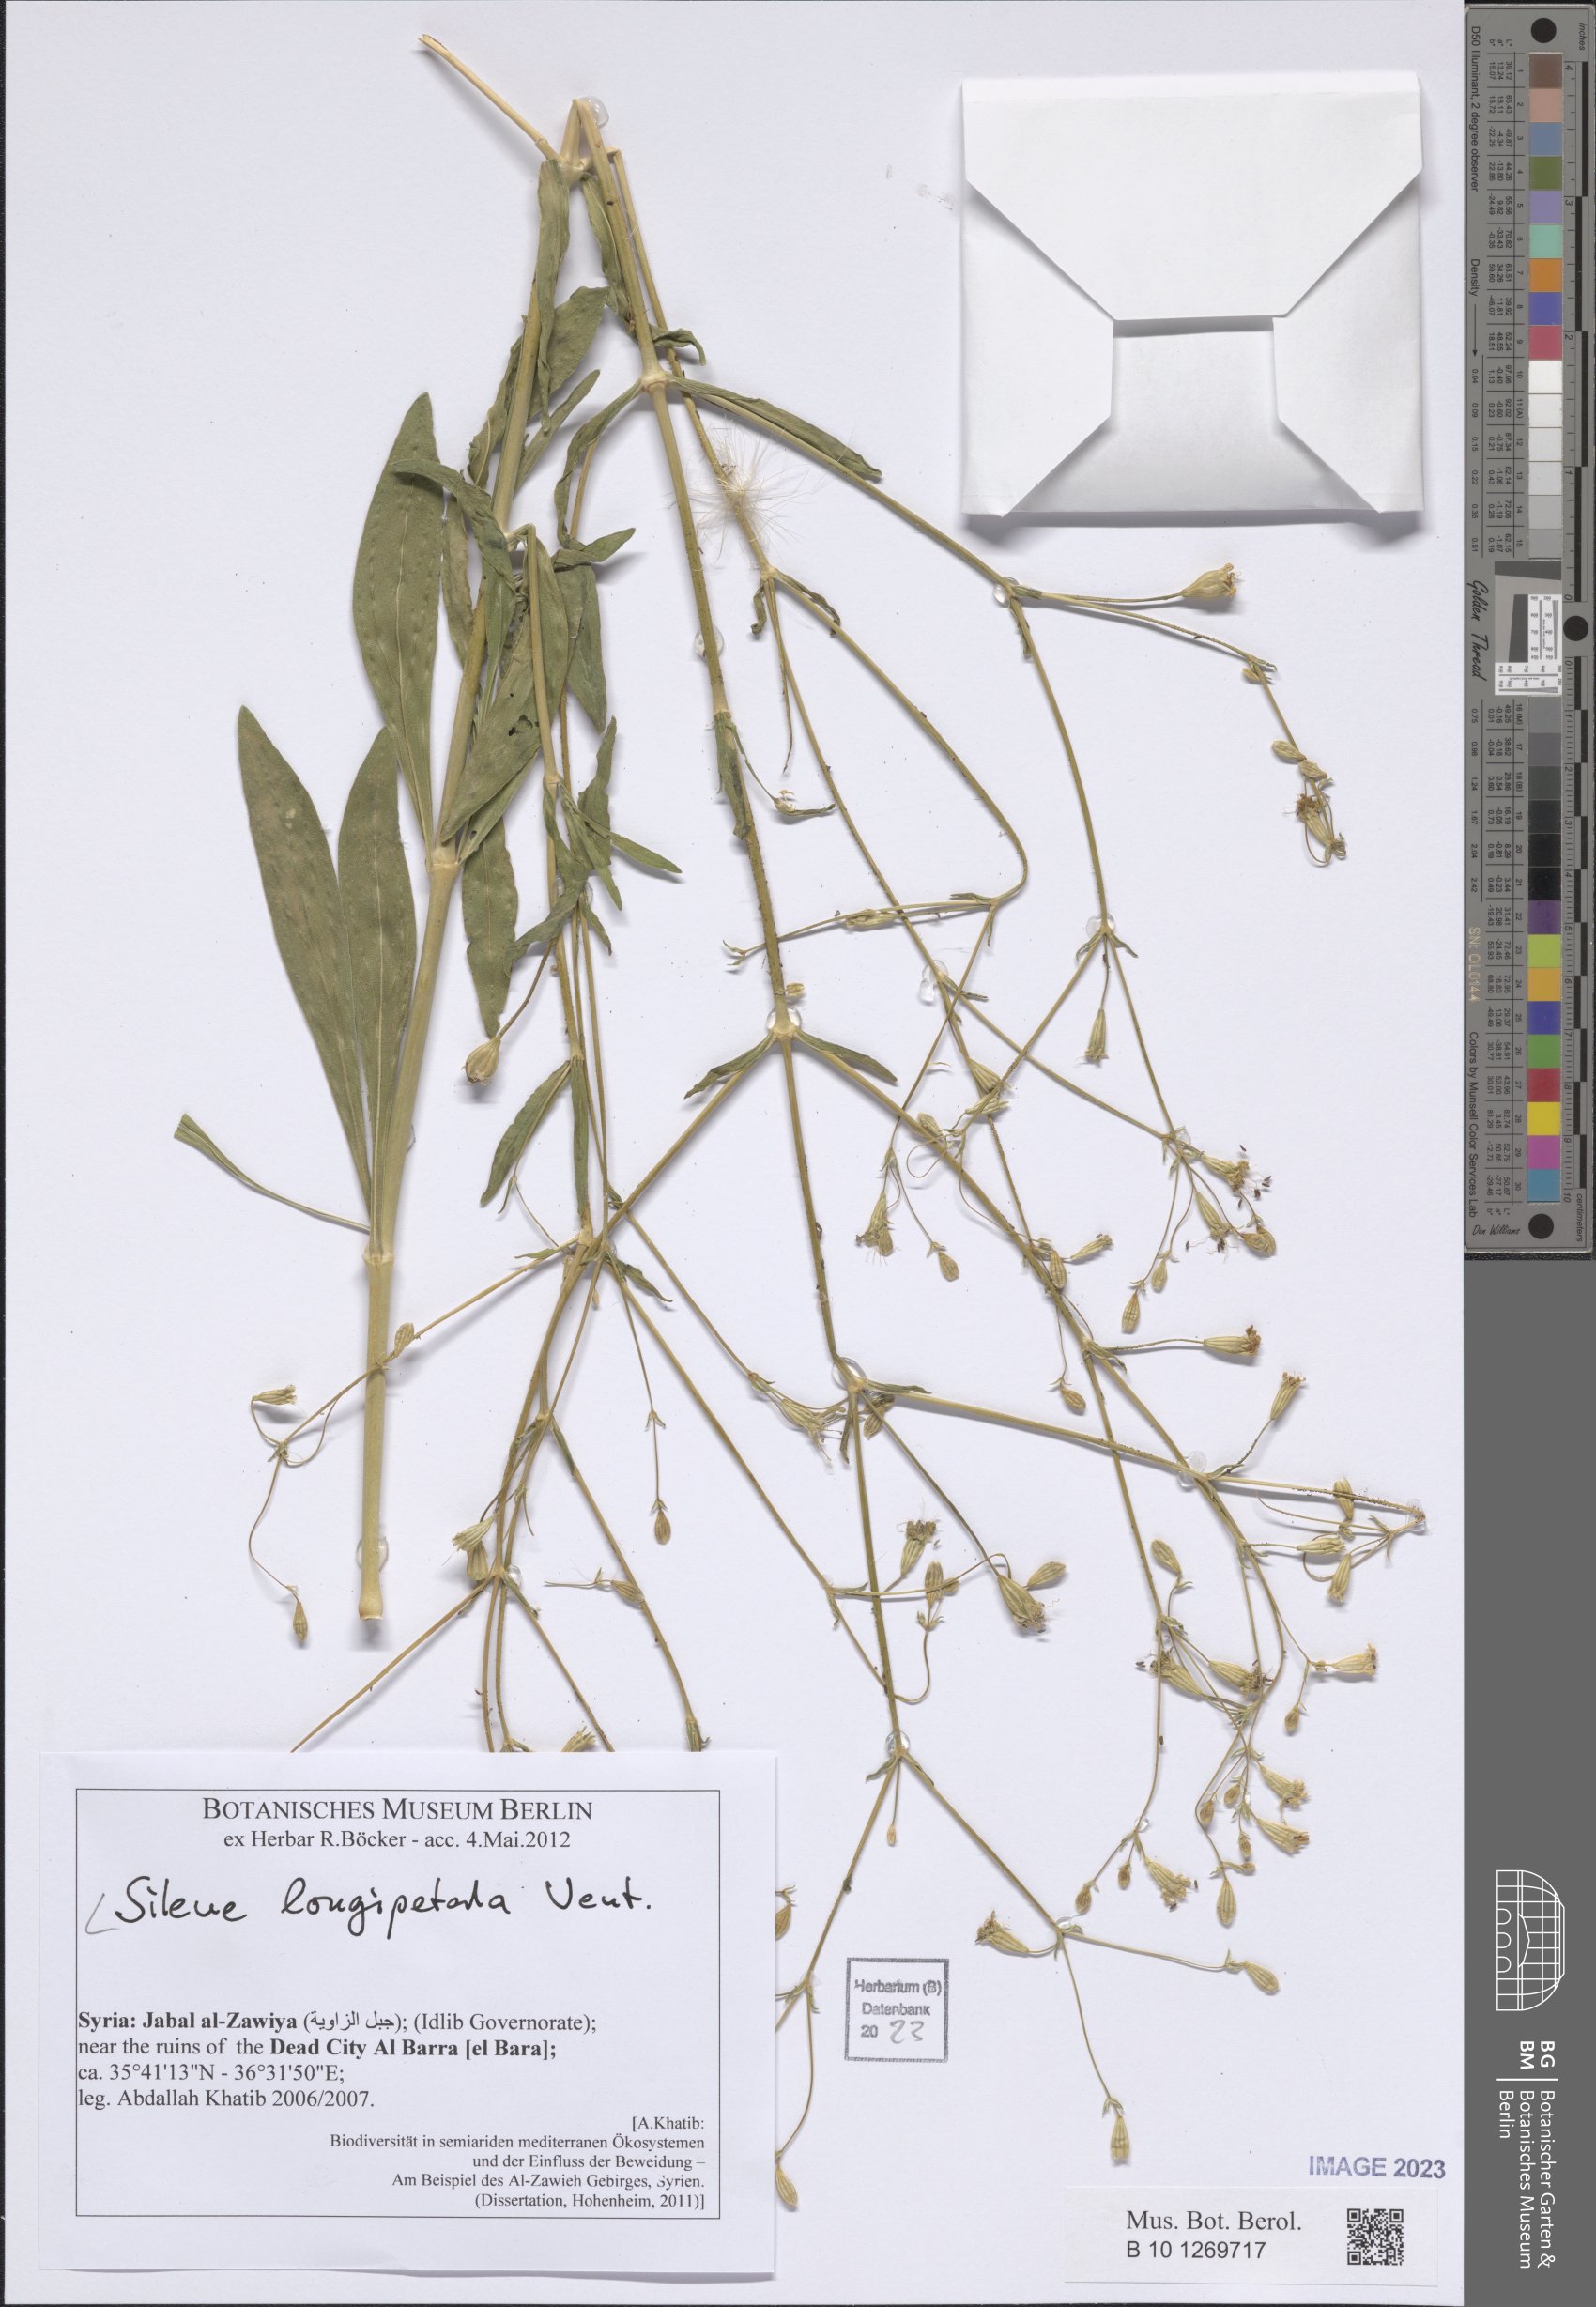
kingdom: Plantae
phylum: Tracheophyta
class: Magnoliopsida
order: Caryophyllales
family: Caryophyllaceae
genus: Silene
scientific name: Silene longipetala
